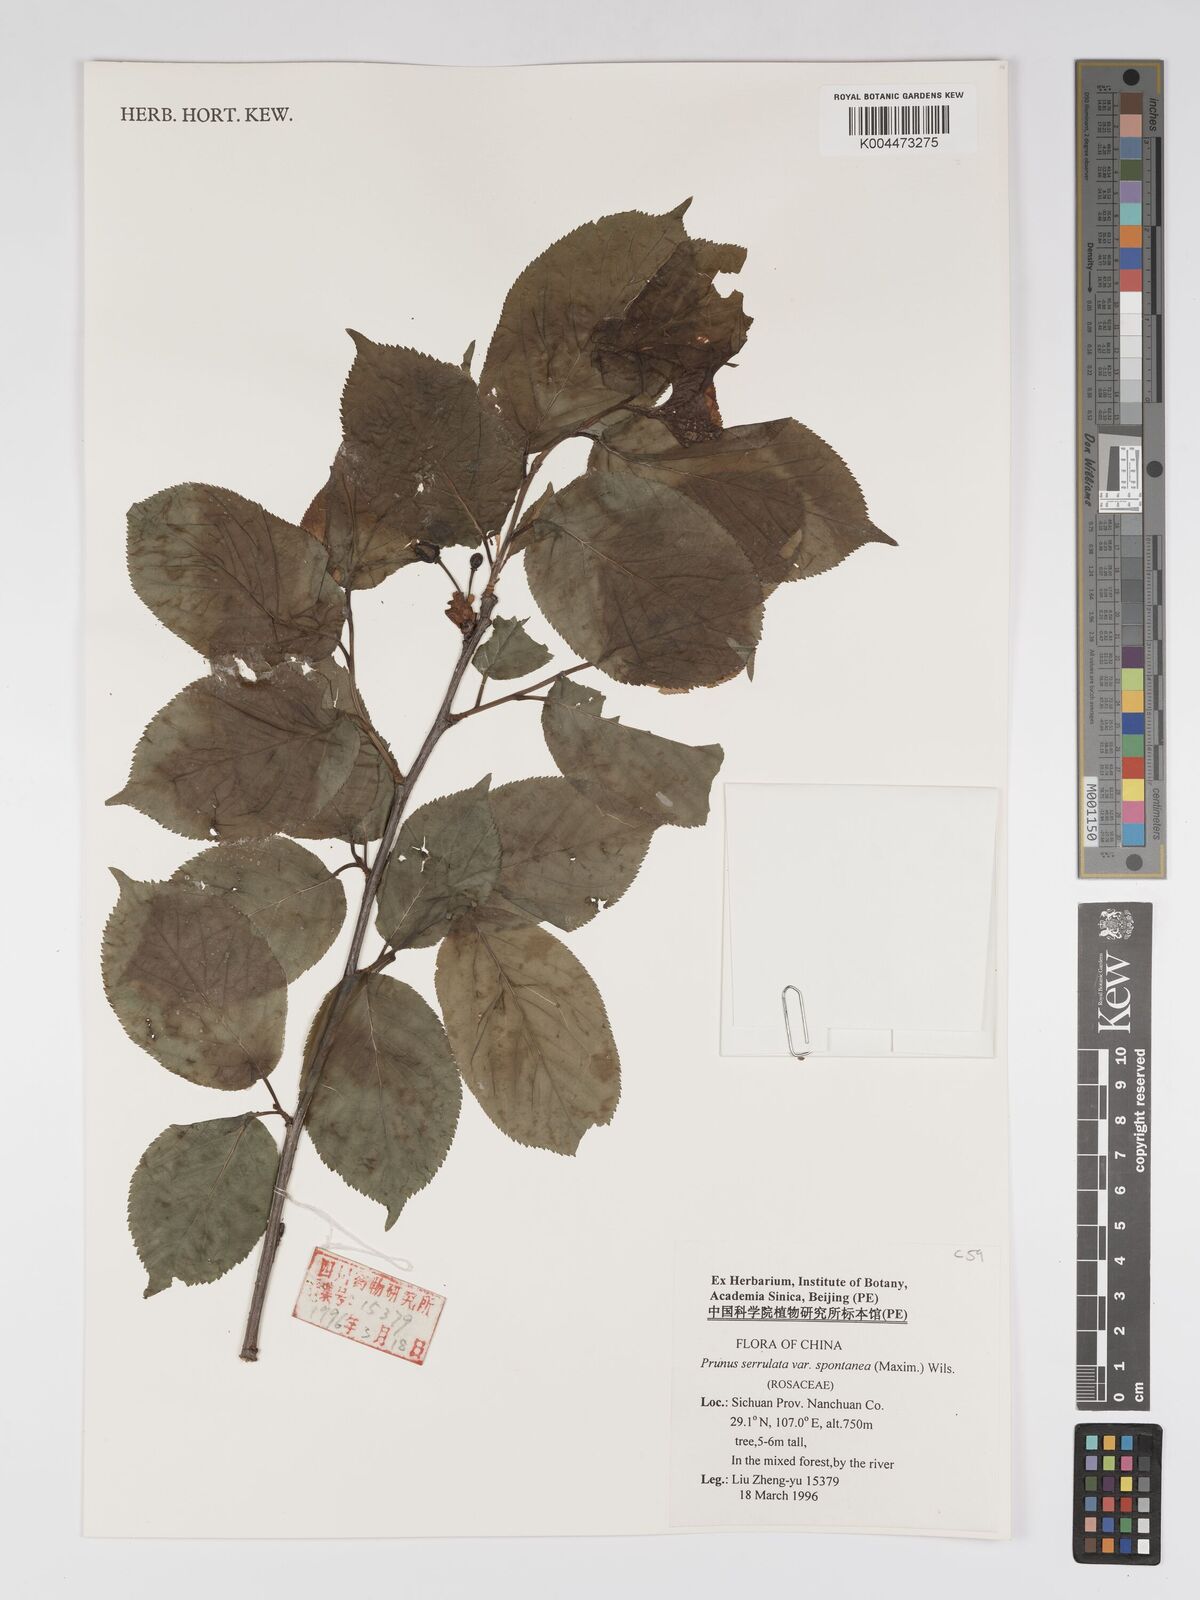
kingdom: Plantae
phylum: Tracheophyta
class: Magnoliopsida
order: Rosales
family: Rosaceae
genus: Prunus
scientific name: Prunus serrulata
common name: Japanese cherry
